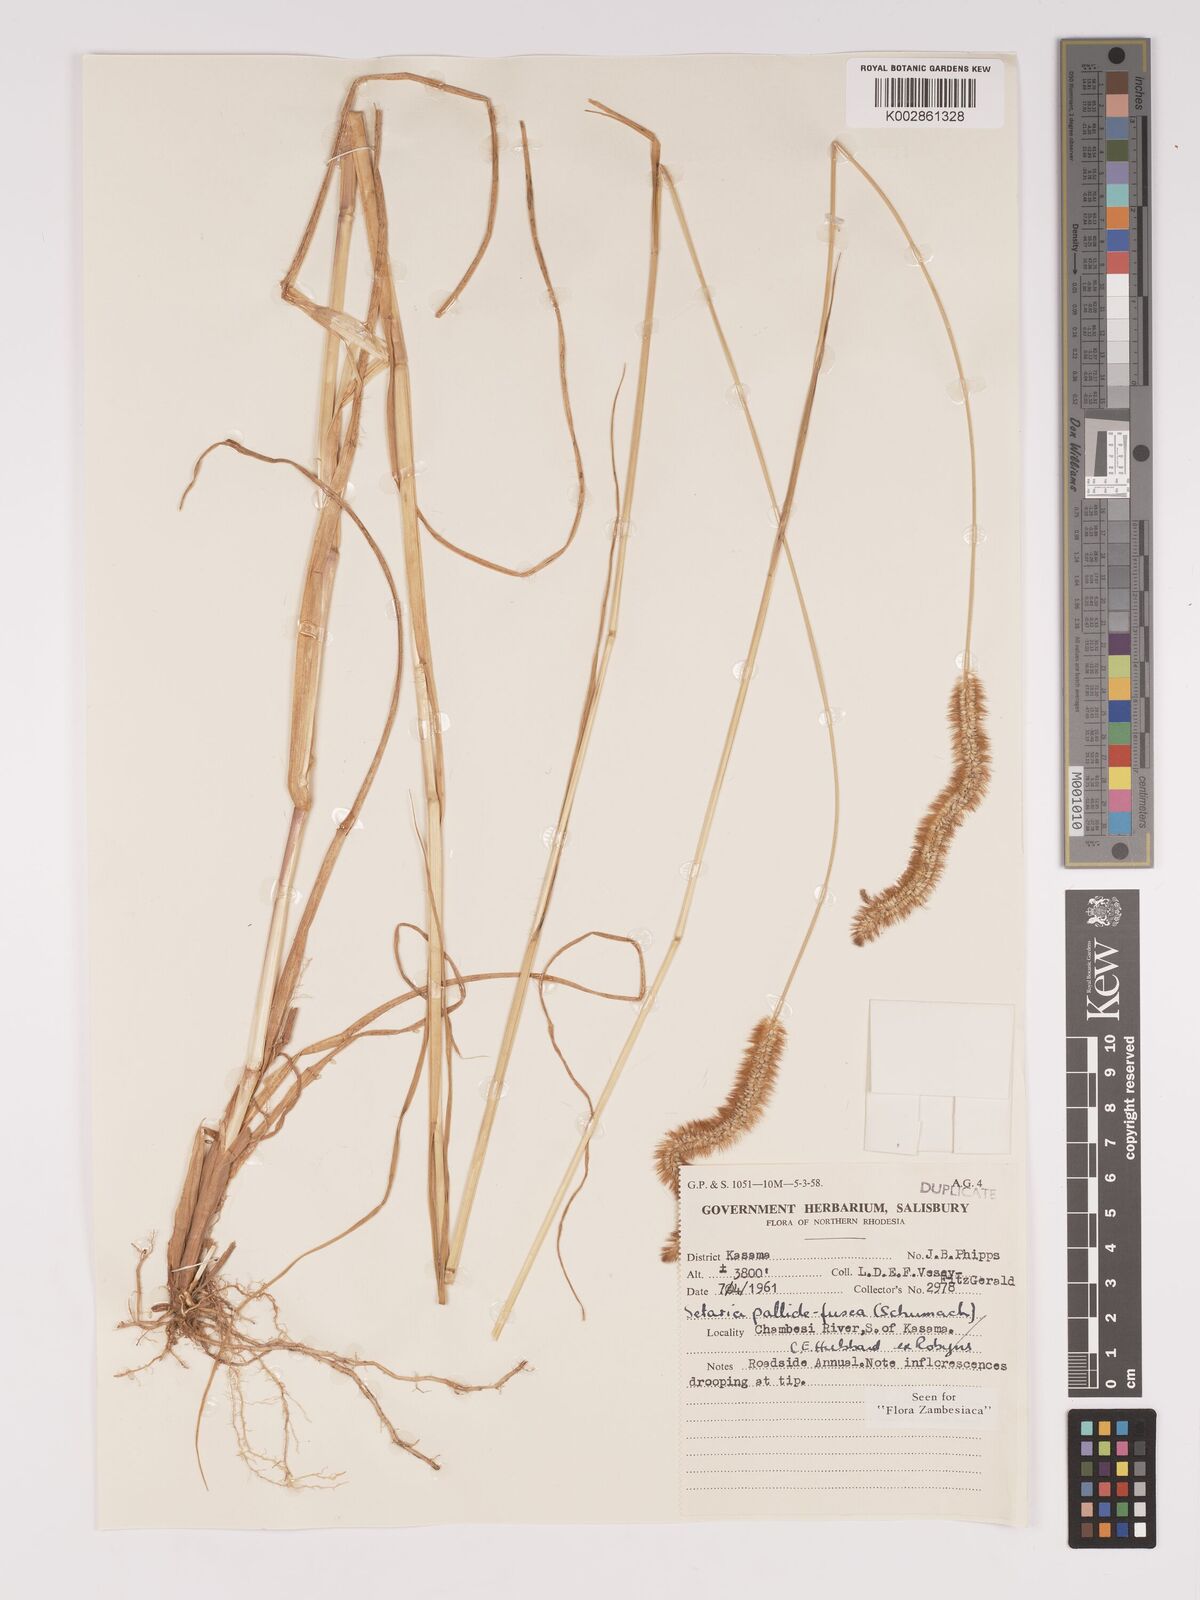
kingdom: Plantae
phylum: Tracheophyta
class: Liliopsida
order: Poales
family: Poaceae
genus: Setaria
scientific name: Setaria pumila
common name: Yellow bristle-grass
